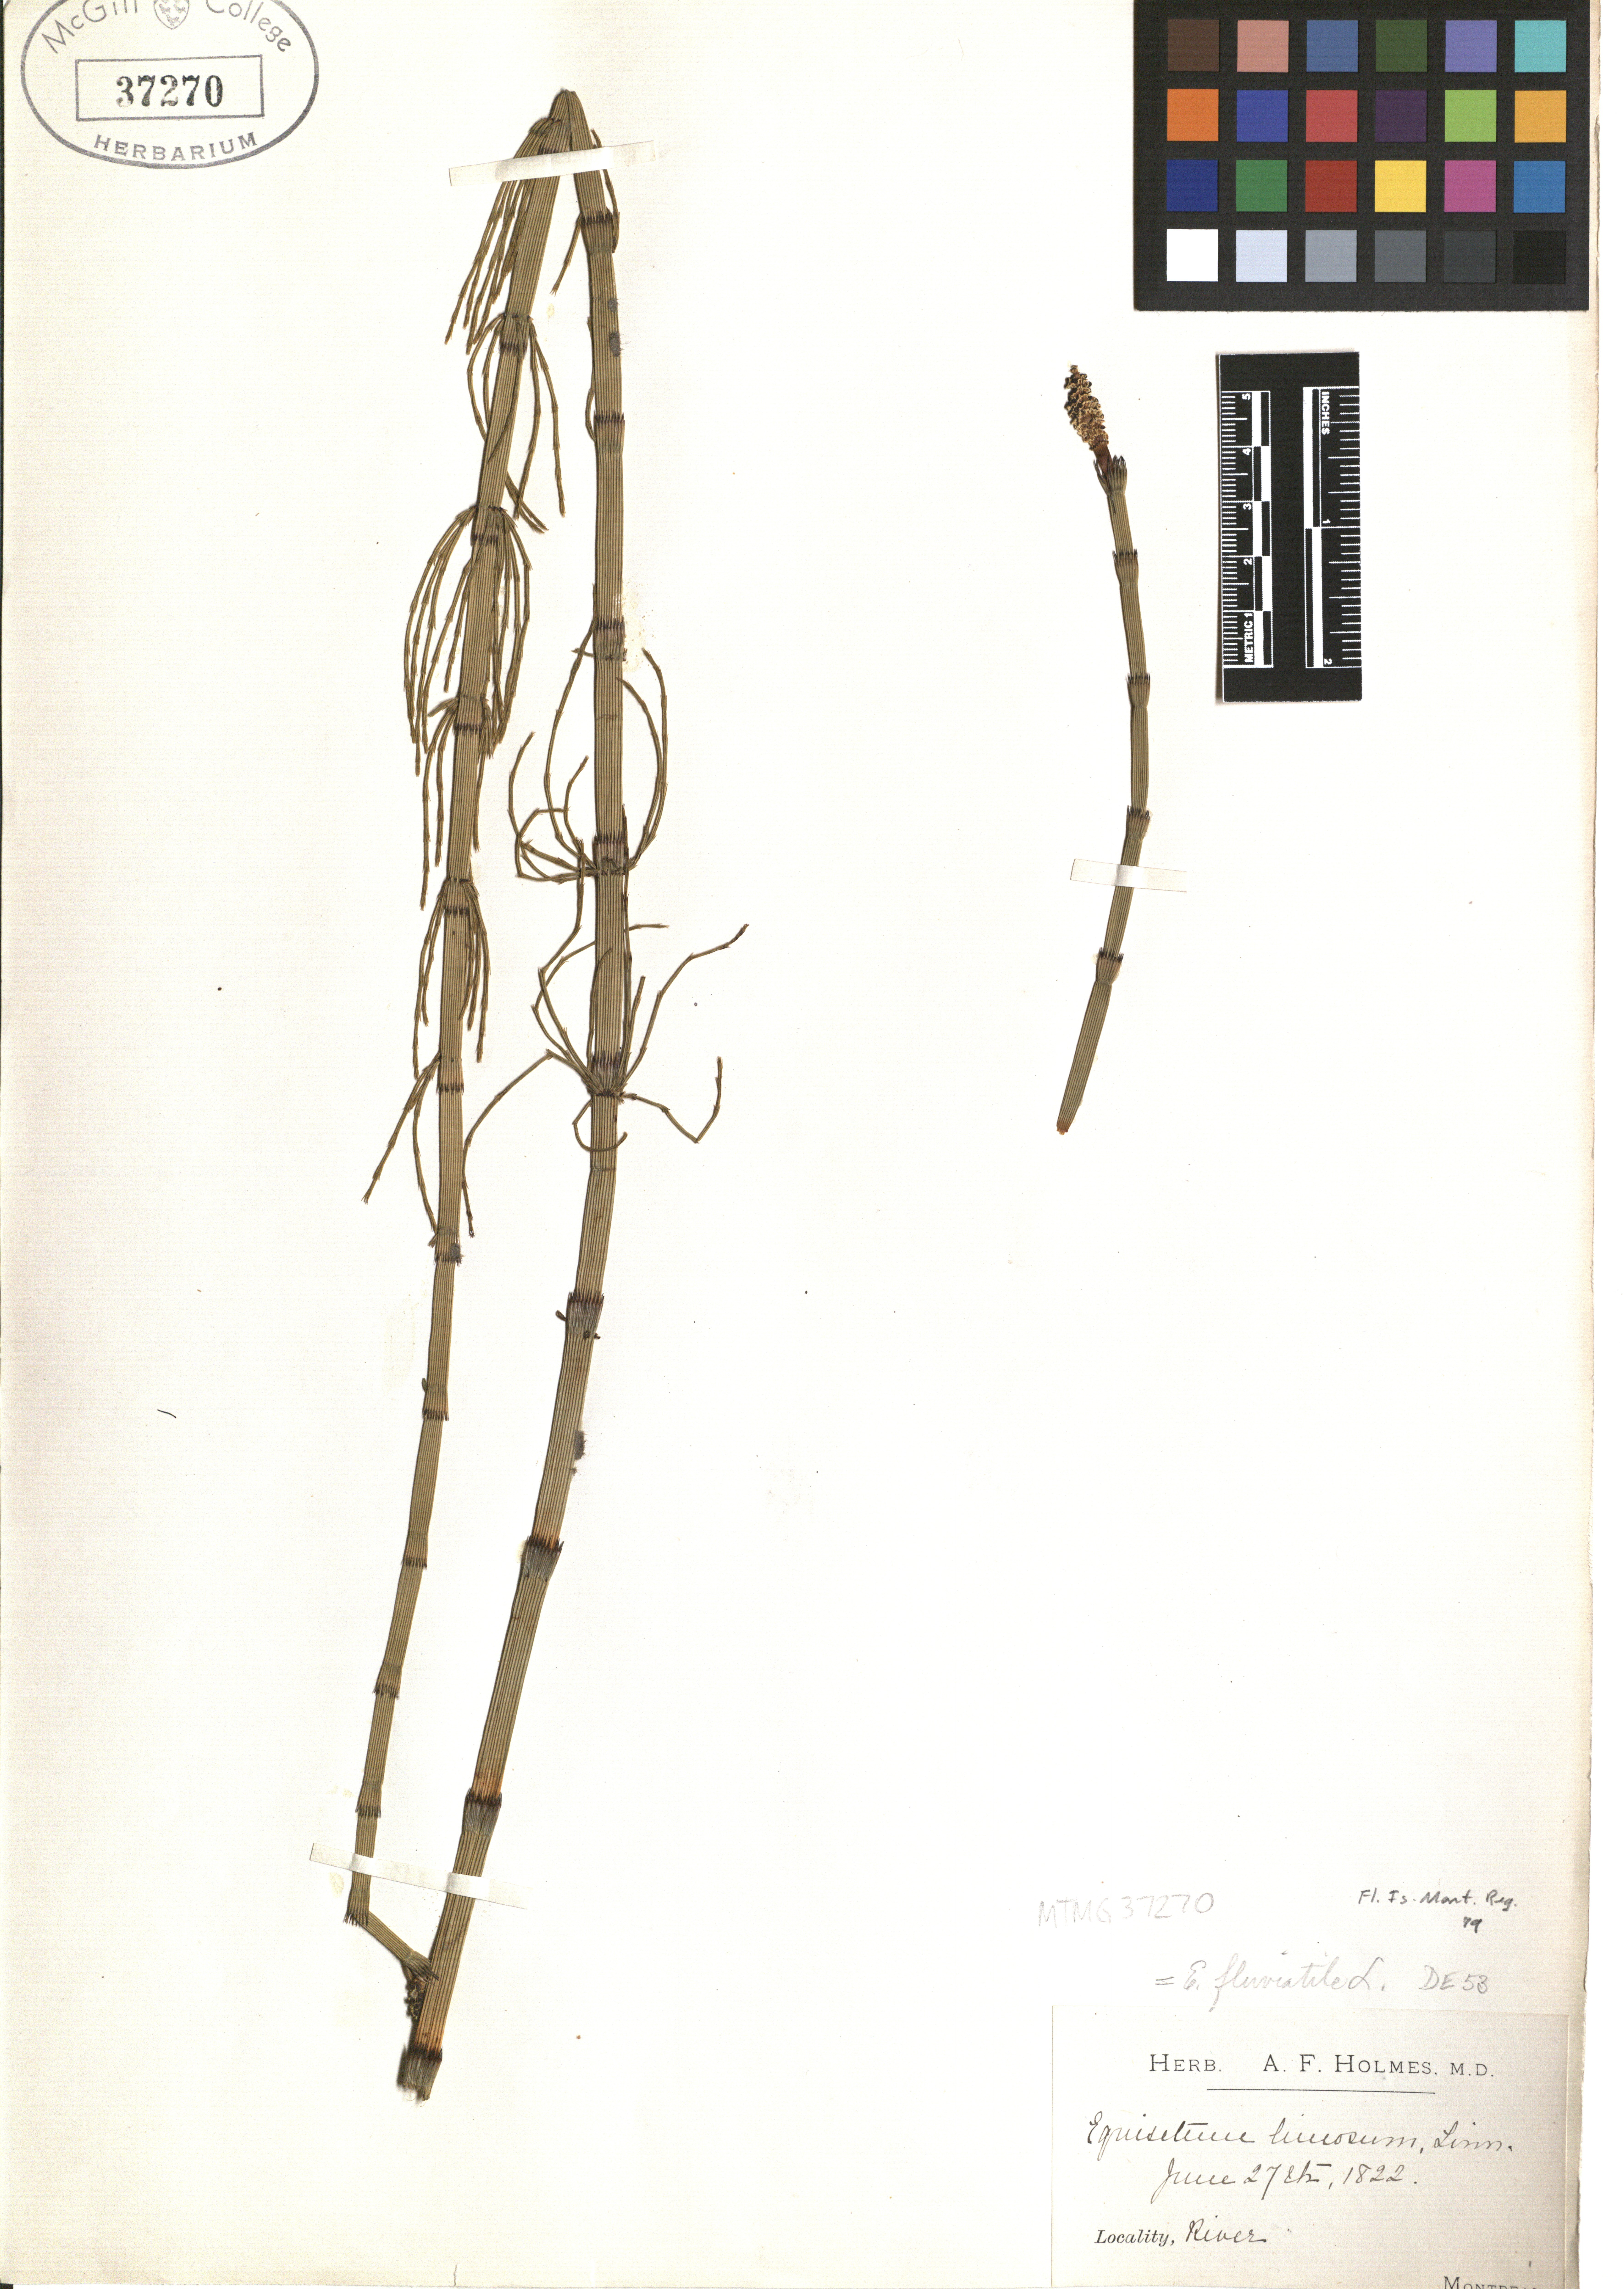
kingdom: Plantae
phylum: Tracheophyta
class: Polypodiopsida
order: Equisetales
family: Equisetaceae
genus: Equisetum
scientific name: Equisetum fluviatile
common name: Water horsetail
